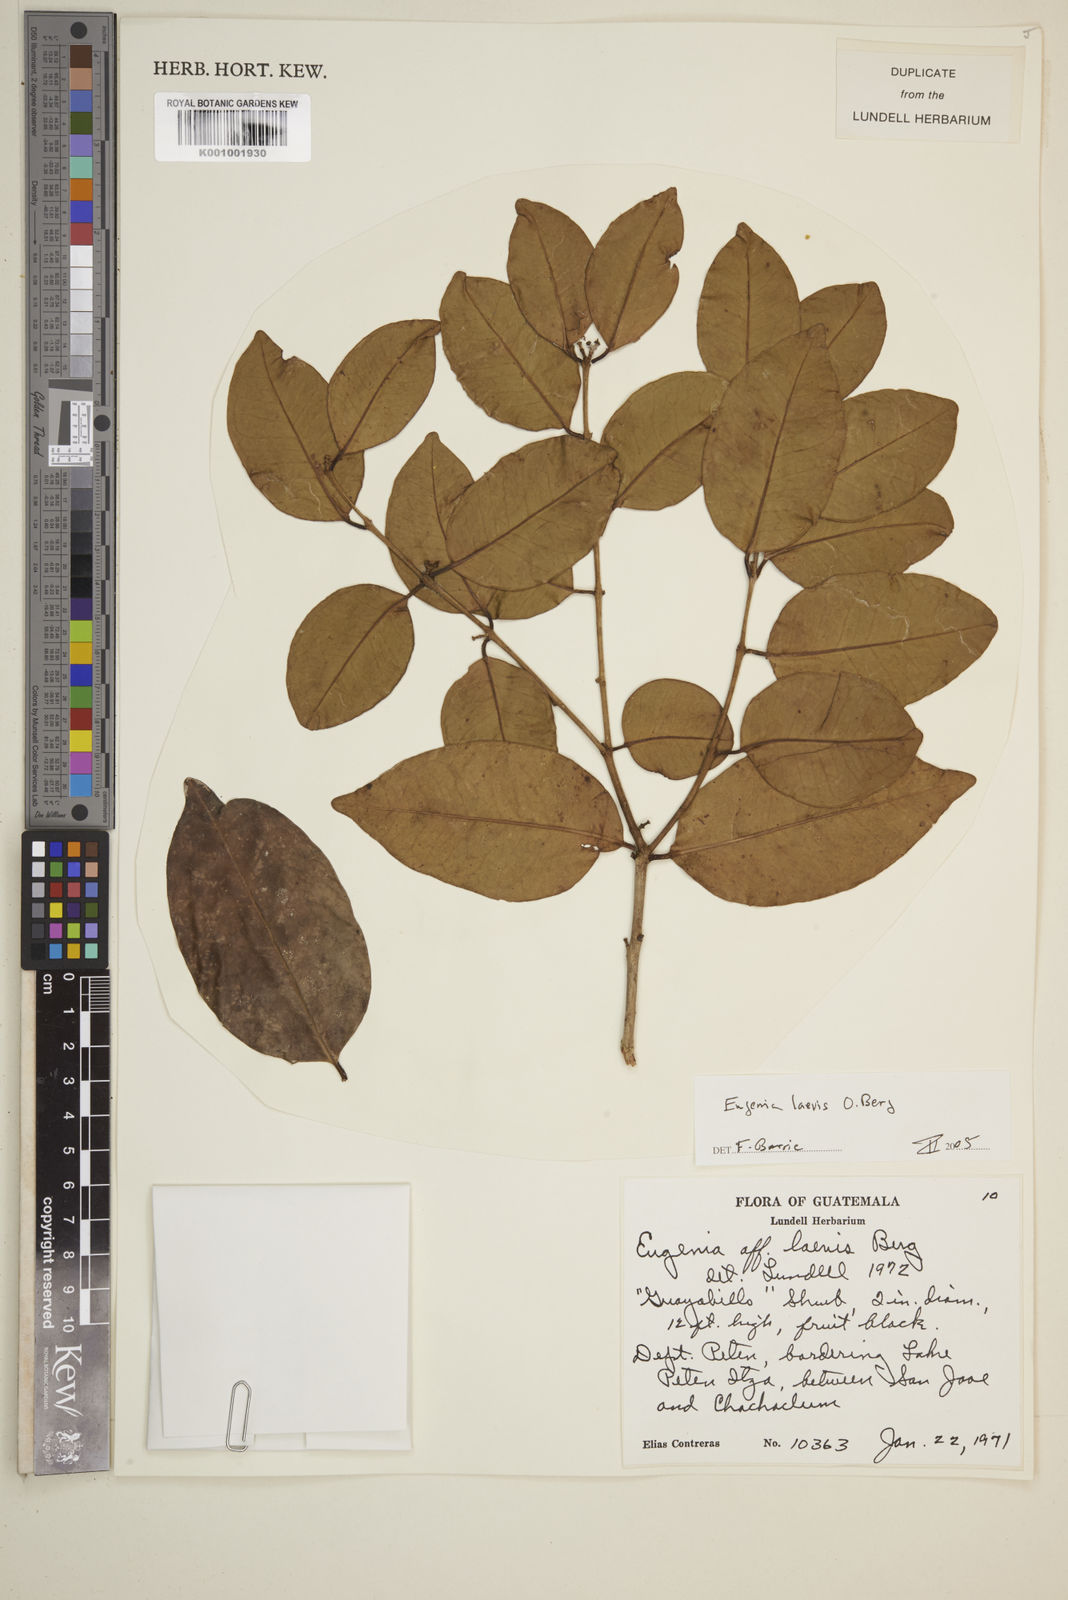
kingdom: Plantae
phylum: Tracheophyta
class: Magnoliopsida
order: Myrtales
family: Myrtaceae
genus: Eugenia
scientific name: Eugenia laevis
